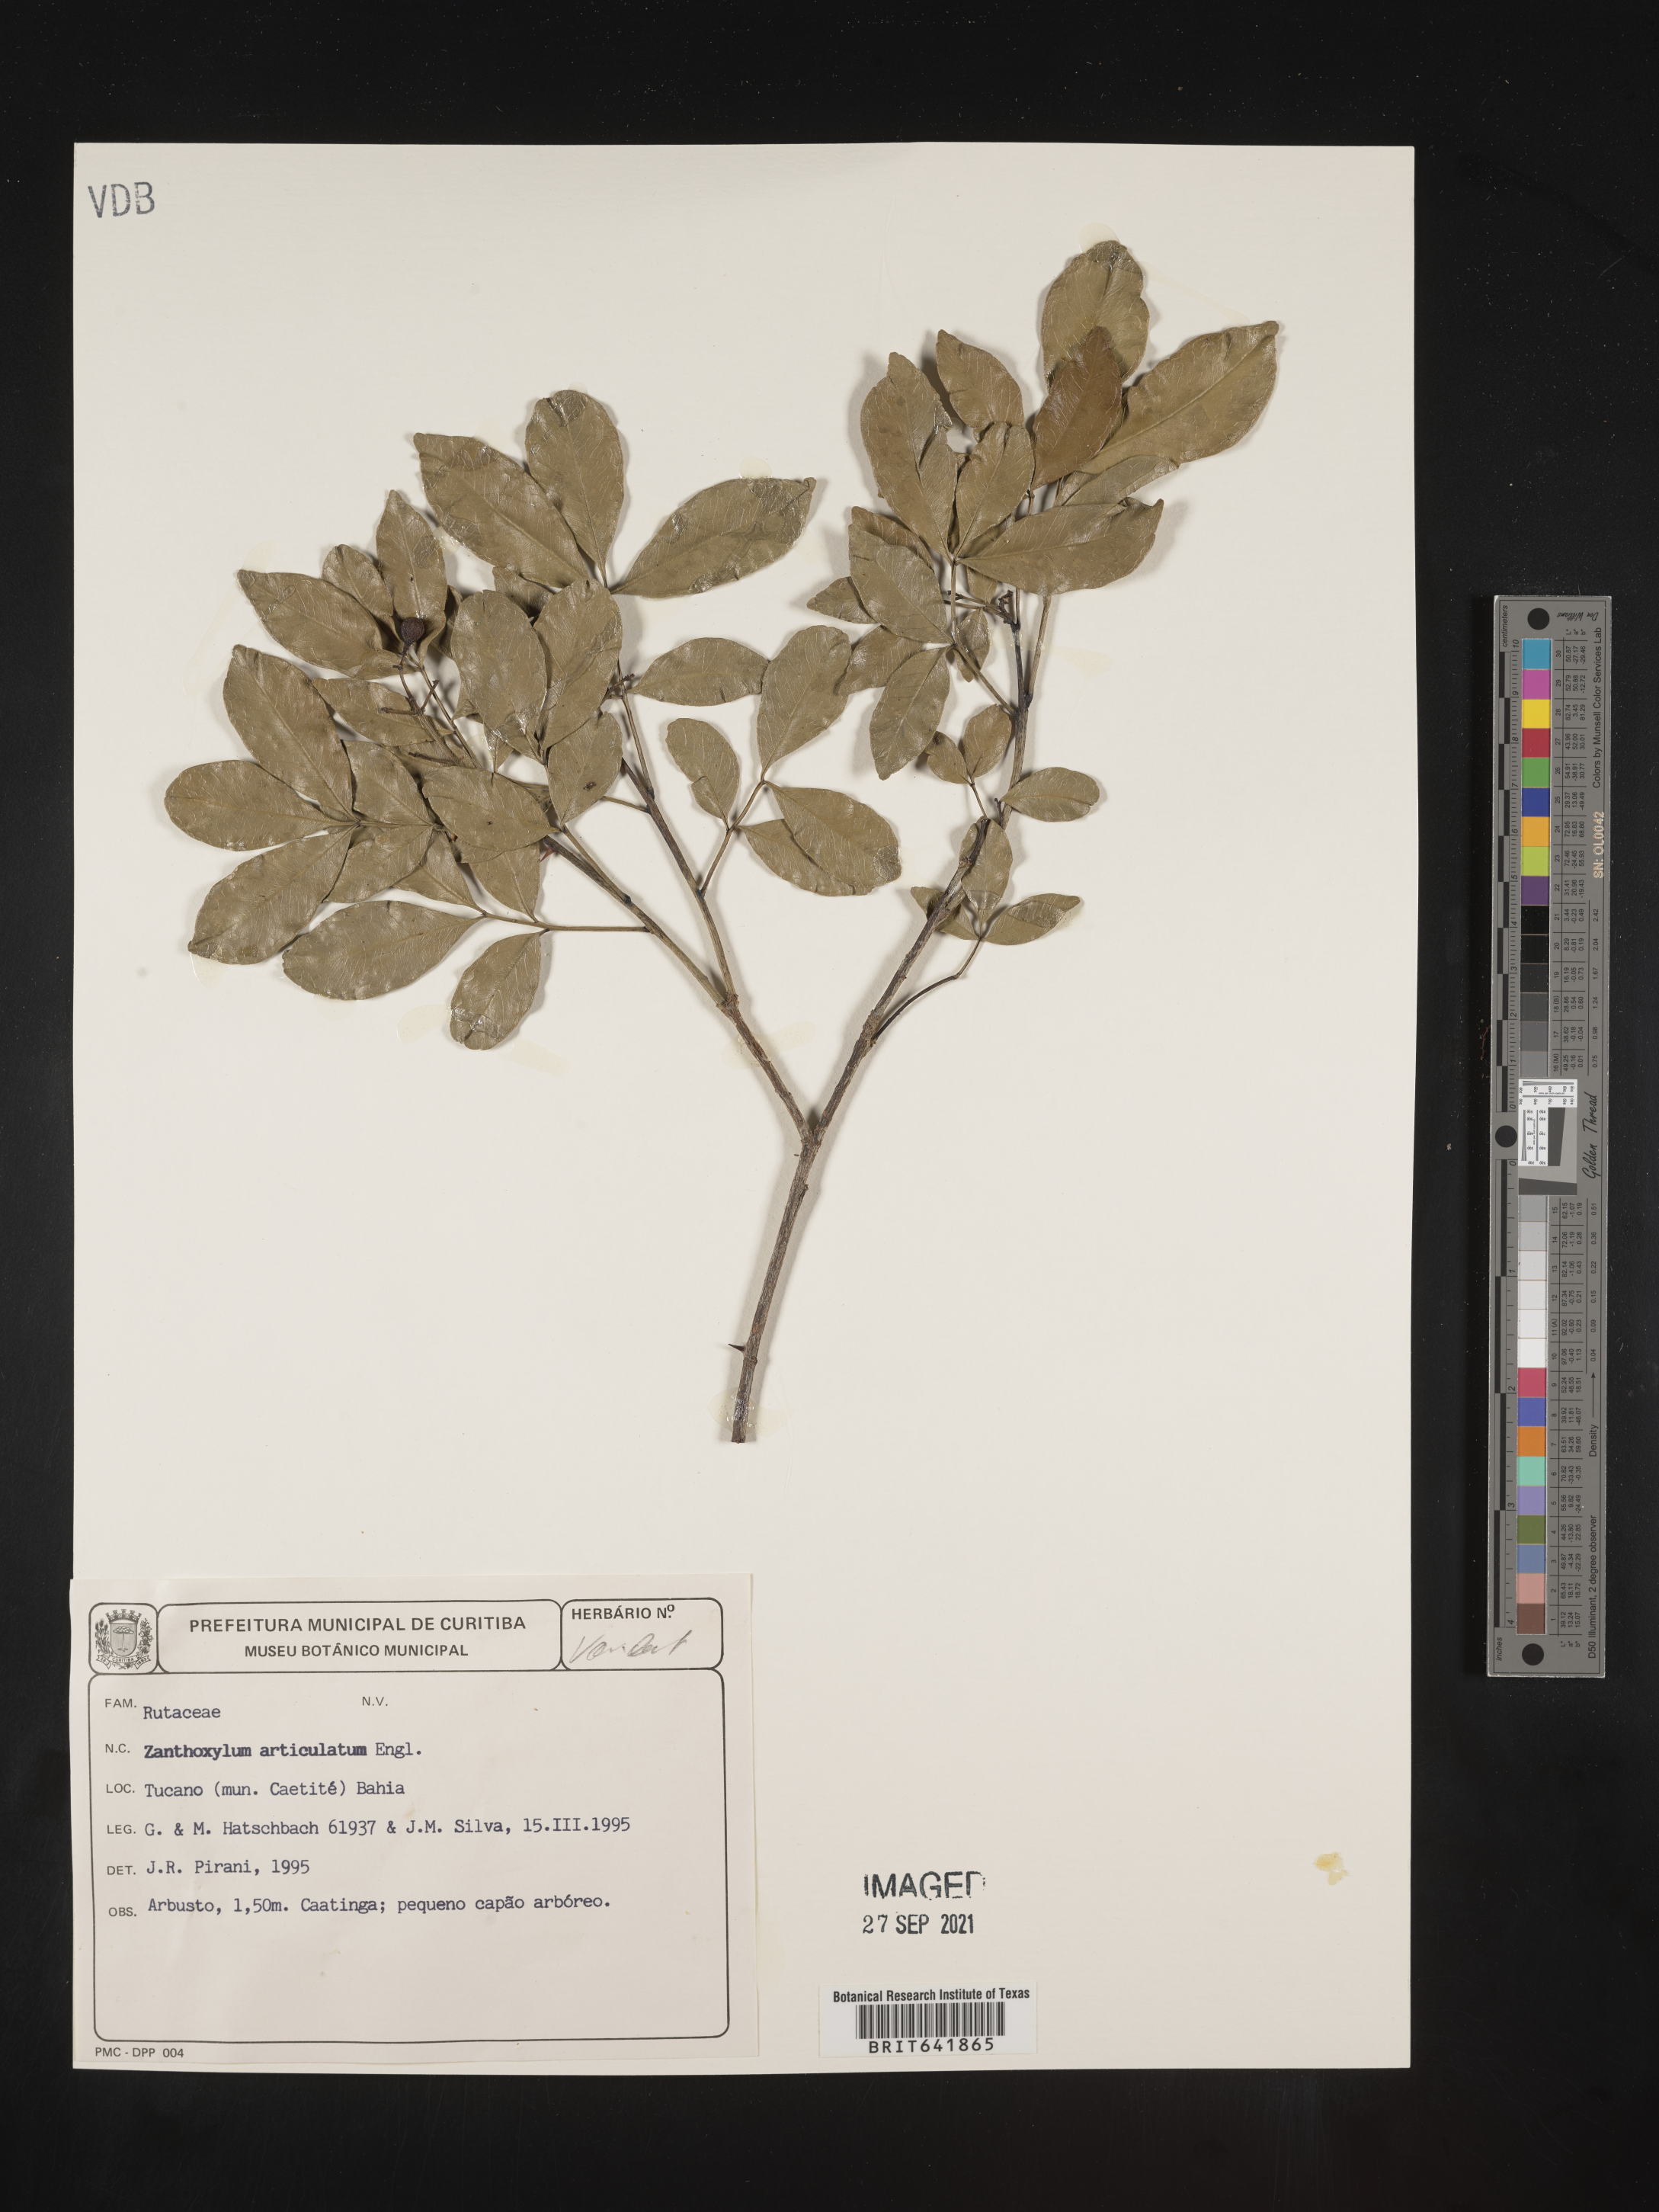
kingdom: Plantae
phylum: Tracheophyta
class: Magnoliopsida
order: Sapindales
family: Rutaceae
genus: Zanthoxylum
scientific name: Zanthoxylum
